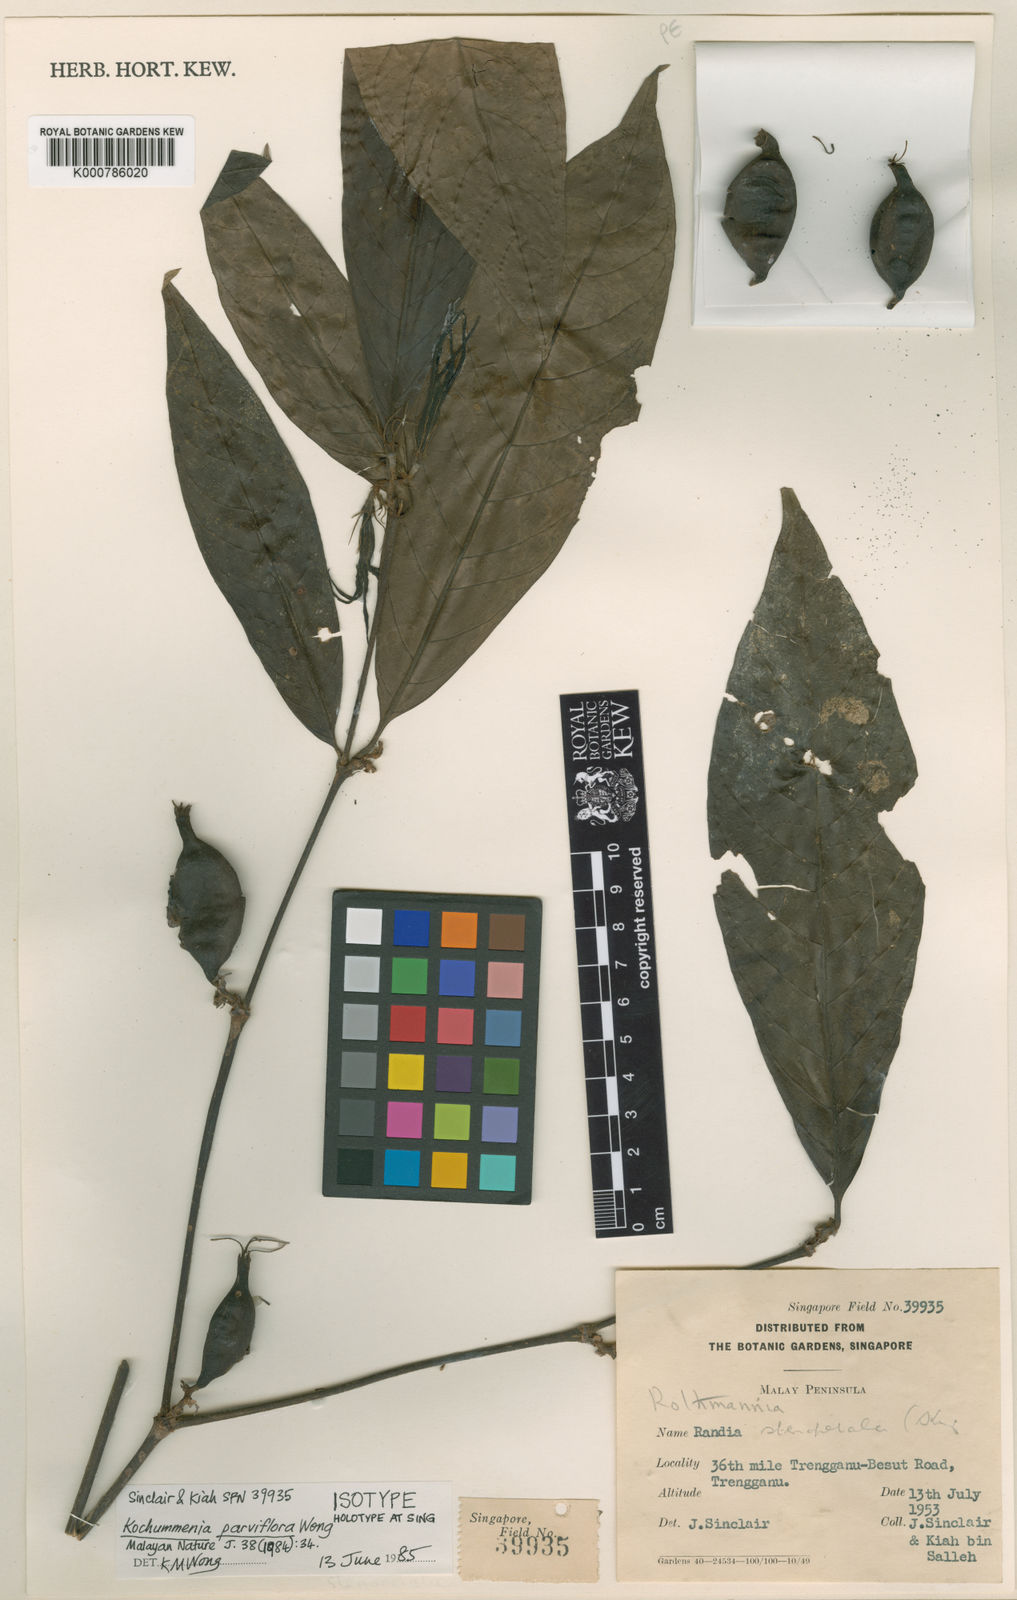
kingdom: Plantae
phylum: Tracheophyta
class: Magnoliopsida
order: Gentianales
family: Rubiaceae
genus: Kochummenia
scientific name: Kochummenia parviflora
